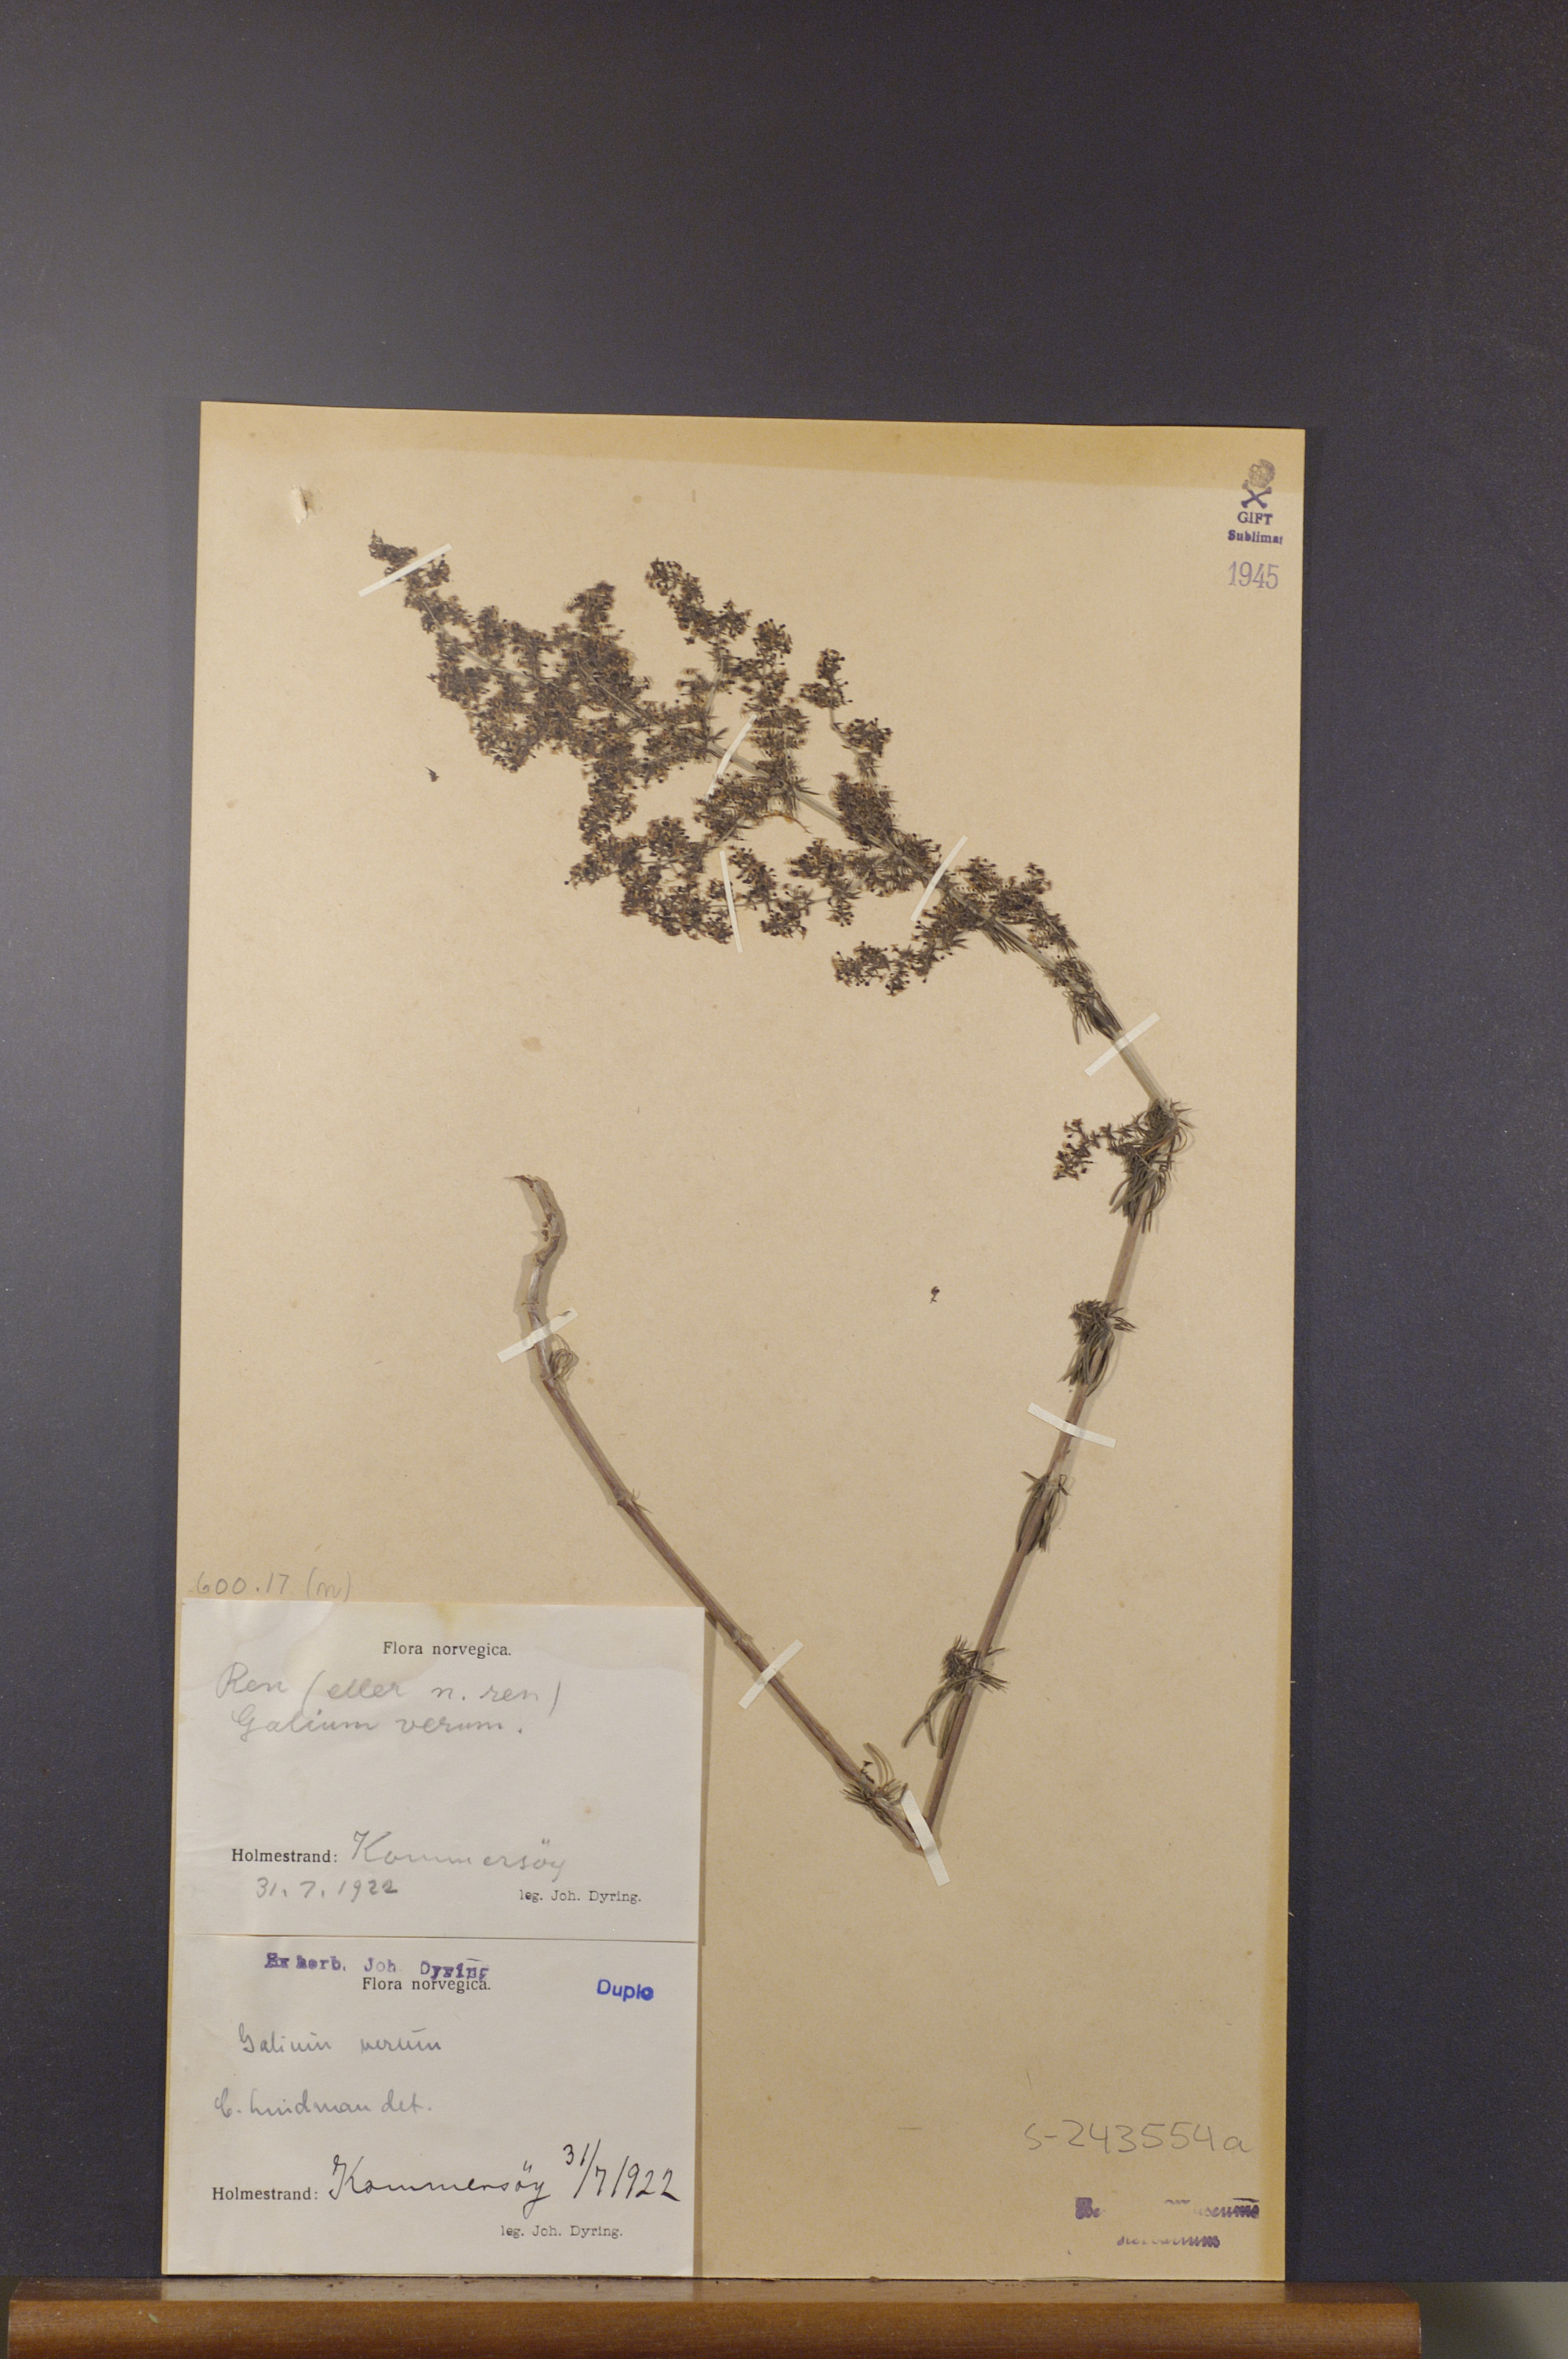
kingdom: Plantae
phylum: Tracheophyta
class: Magnoliopsida
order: Gentianales
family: Rubiaceae
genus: Galium
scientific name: Galium verum
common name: Lady's bedstraw
